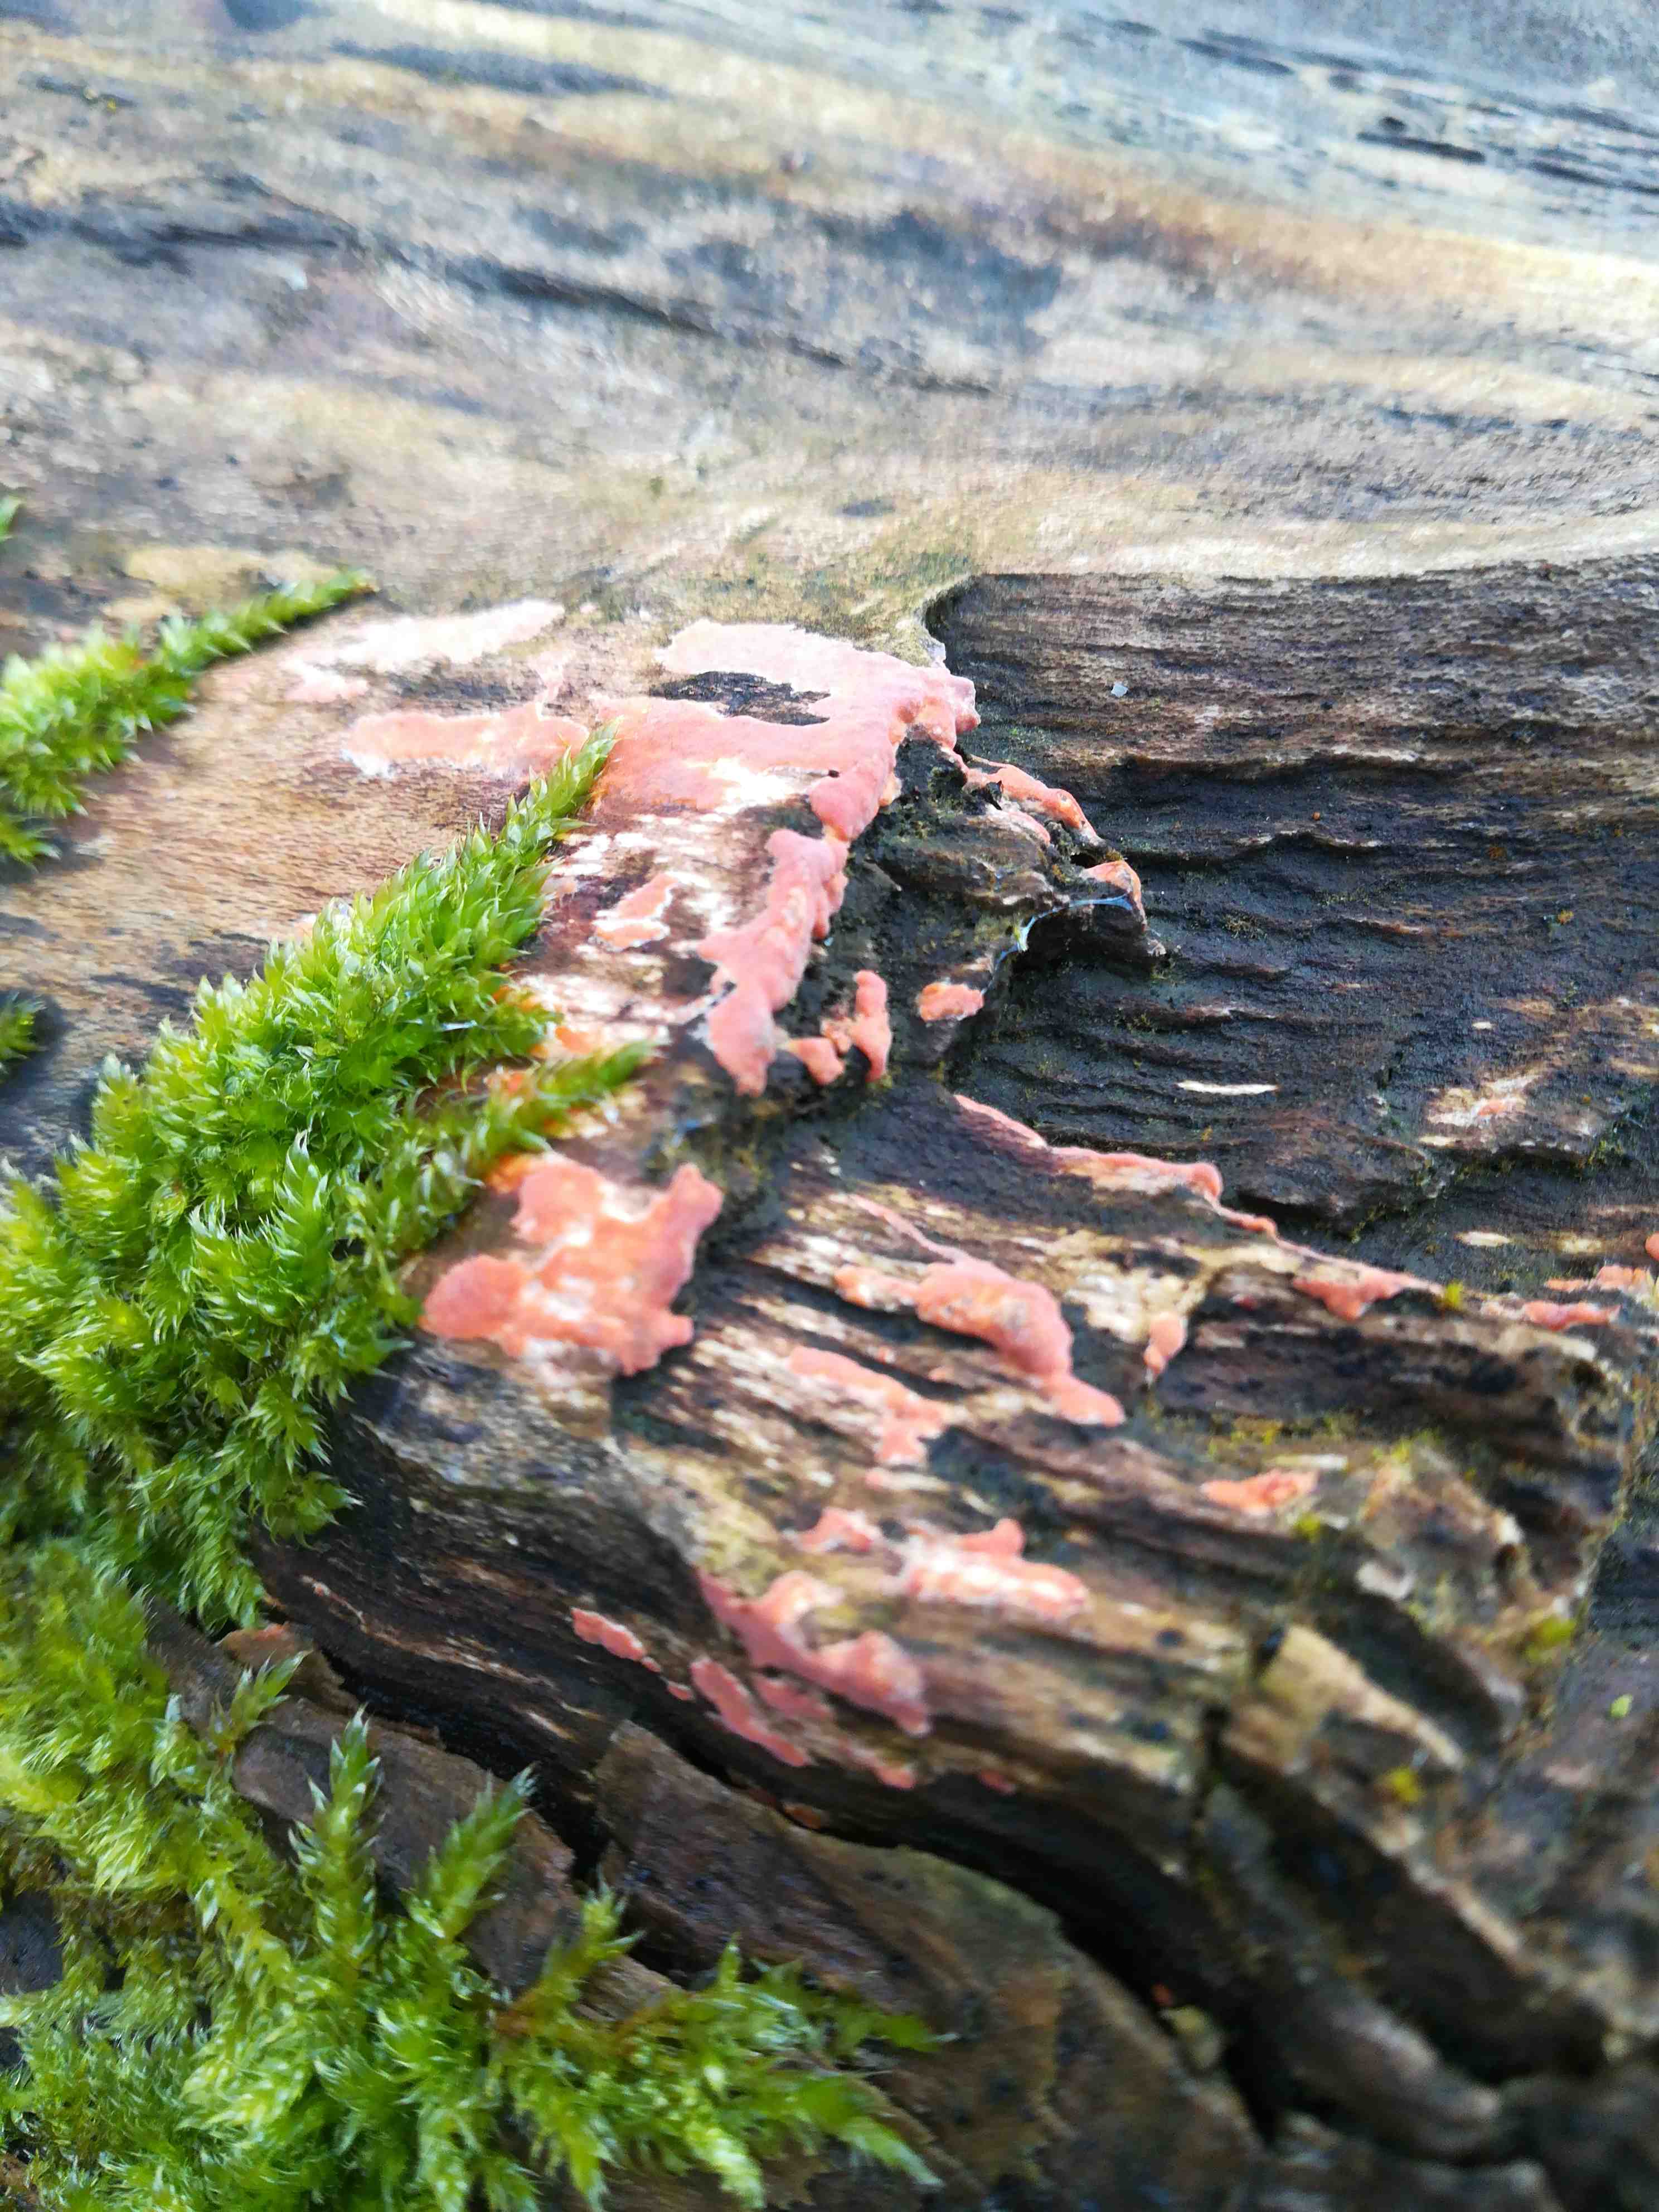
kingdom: Fungi
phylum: Basidiomycota
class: Agaricomycetes
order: Russulales
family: Peniophoraceae
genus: Peniophora
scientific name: Peniophora incarnata
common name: laksefarvet voksskind
